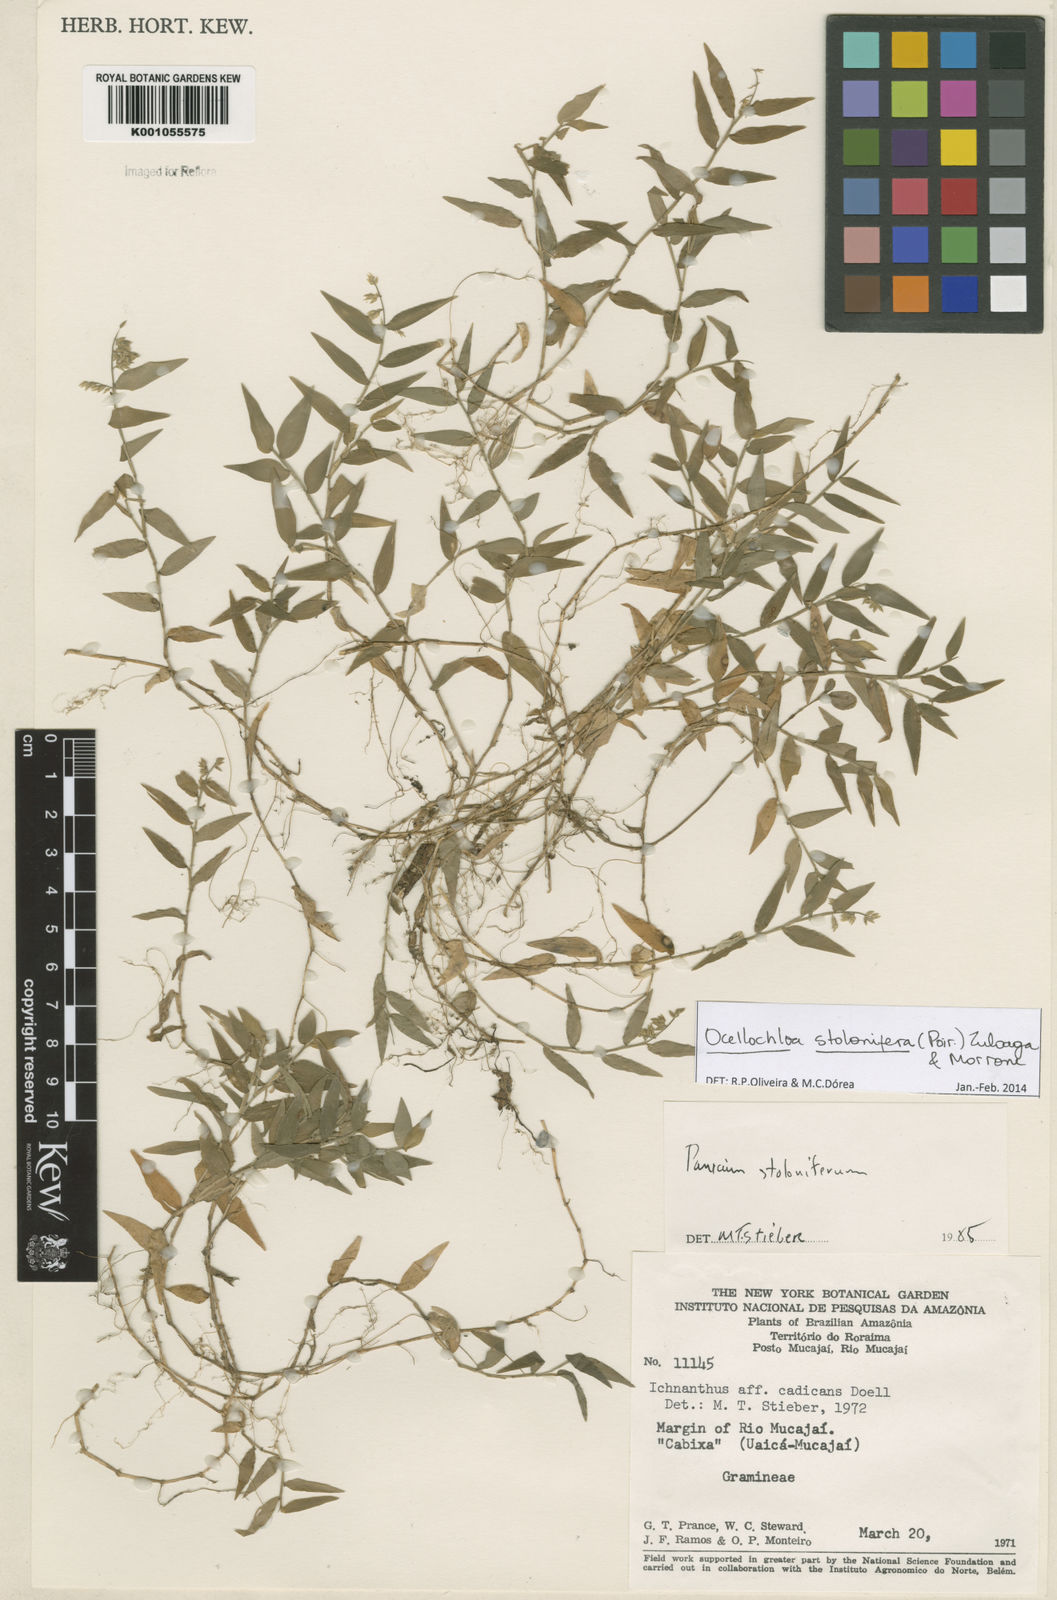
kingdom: Plantae
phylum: Tracheophyta
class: Liliopsida
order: Poales
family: Poaceae
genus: Ocellochloa
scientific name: Ocellochloa stolonifera
